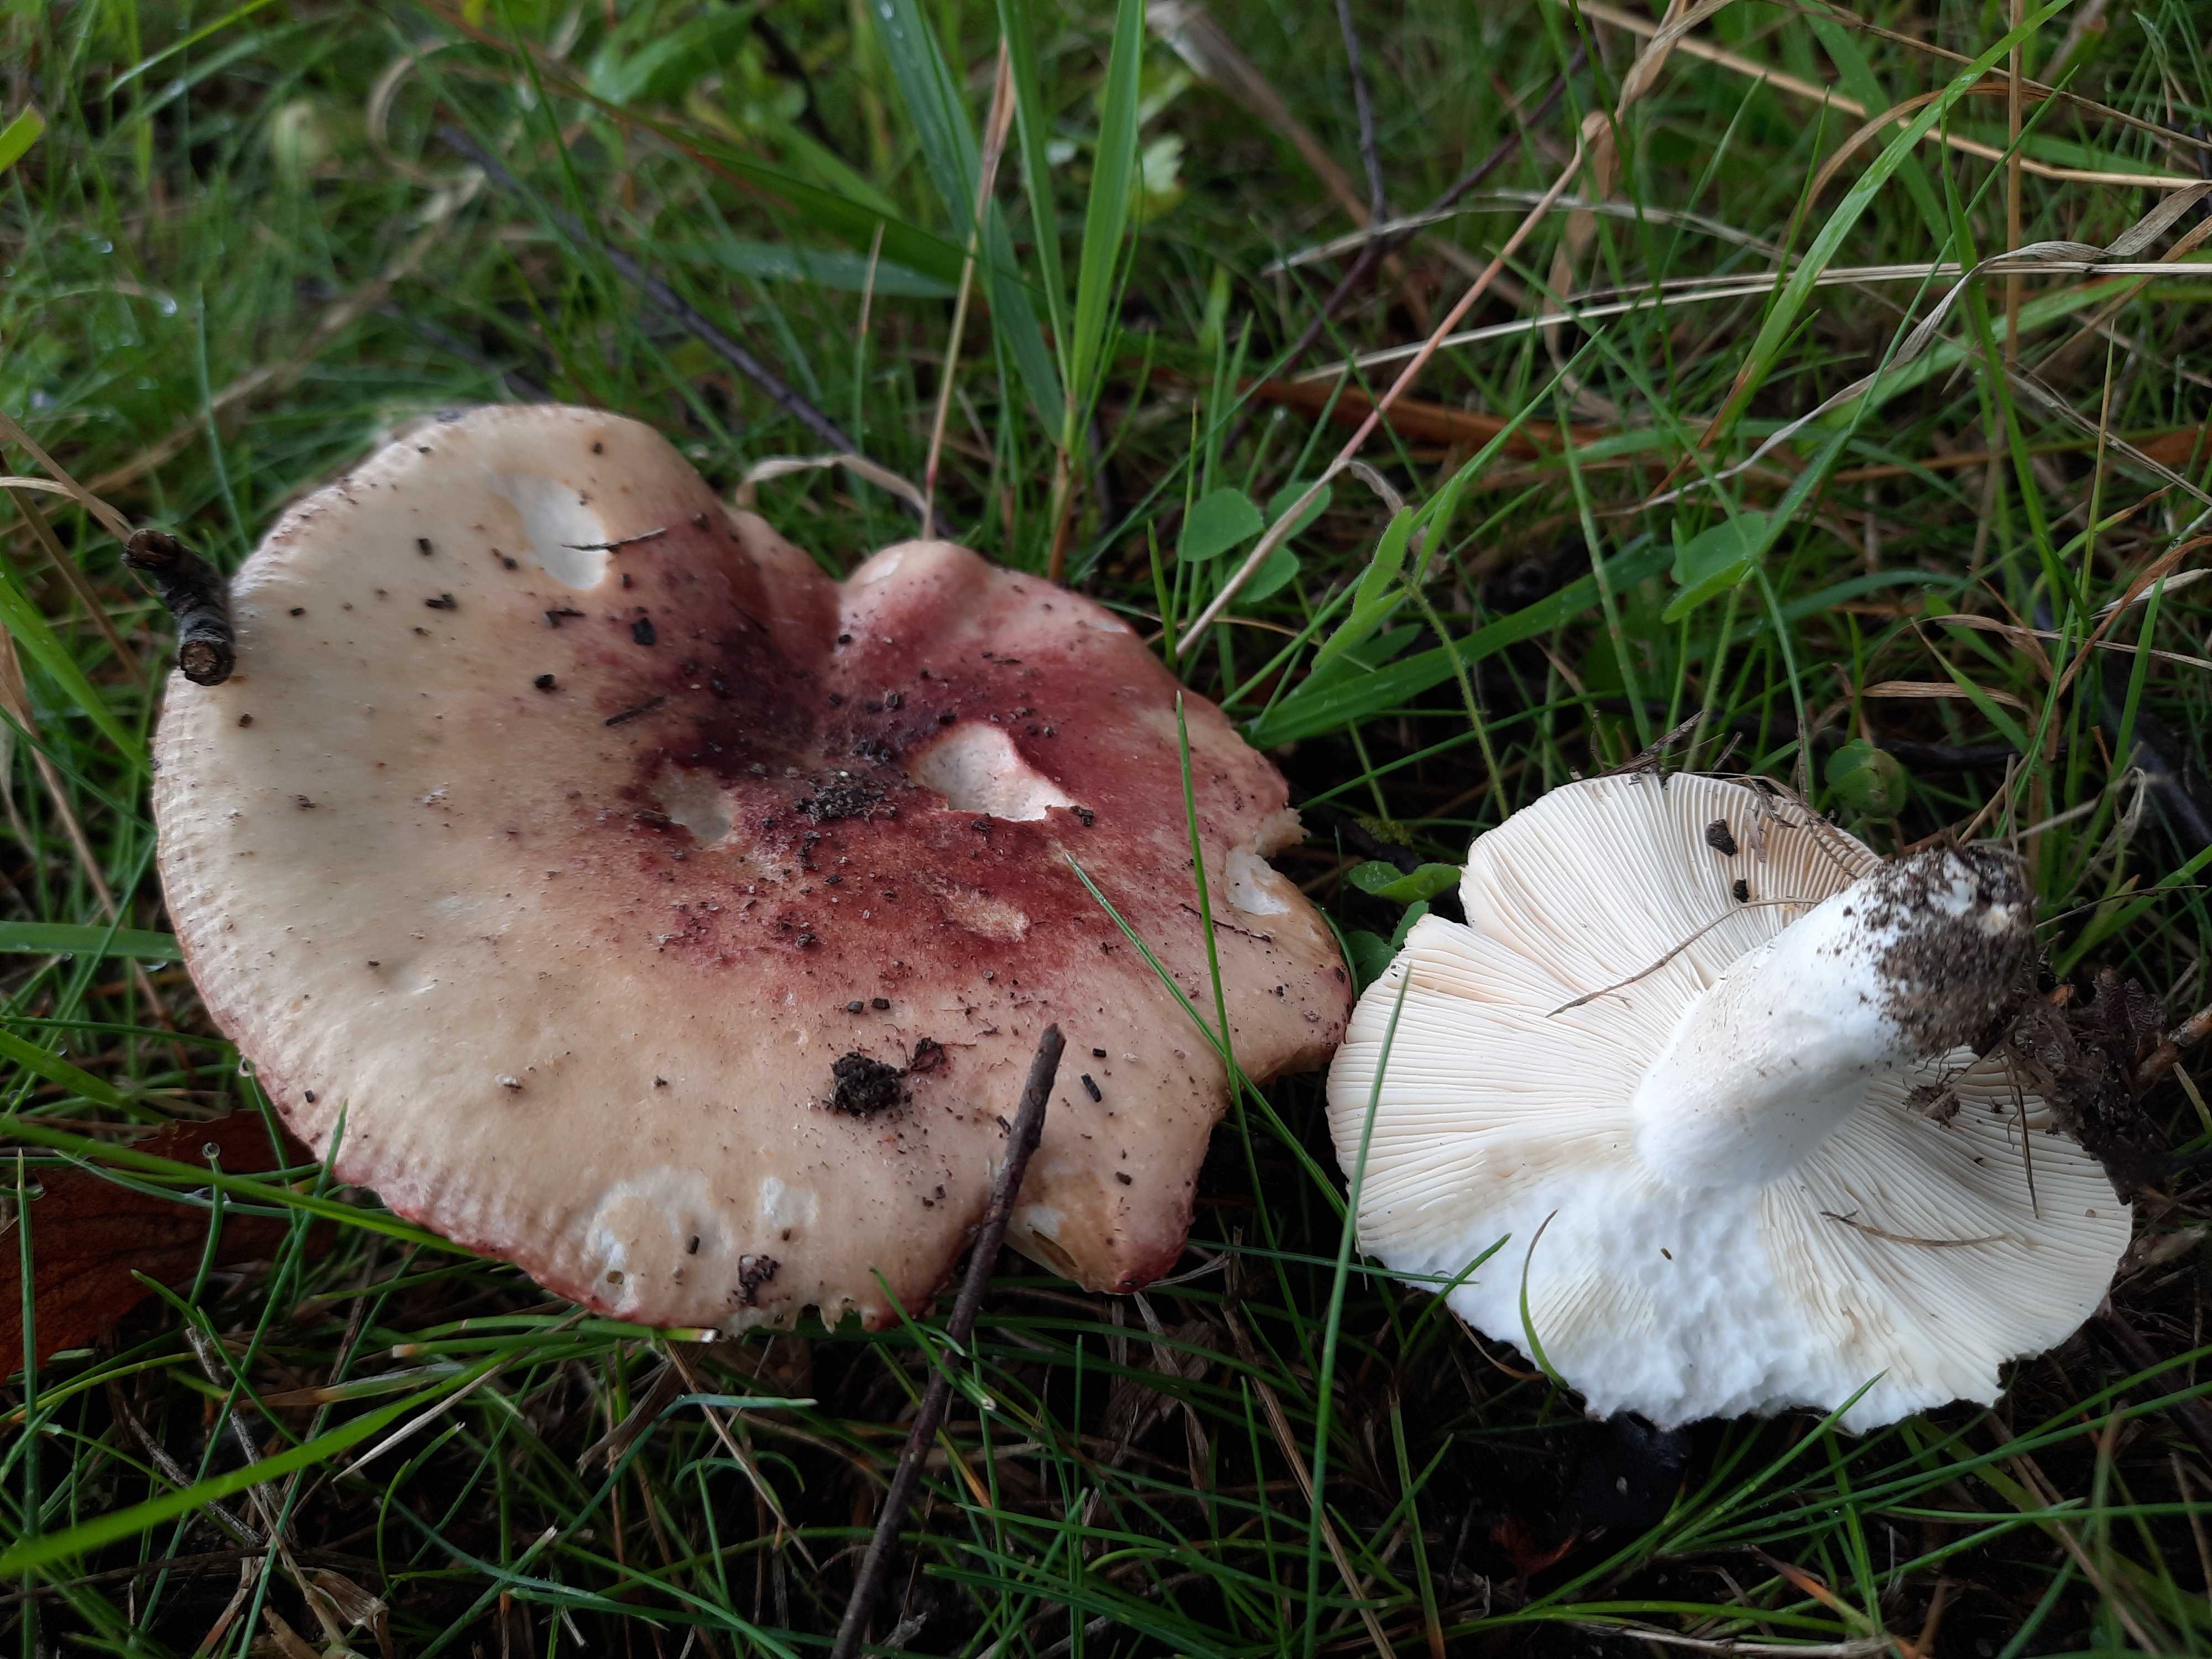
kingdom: Fungi
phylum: Basidiomycota
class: Agaricomycetes
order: Russulales
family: Russulaceae
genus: Russula
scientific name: Russula depallens
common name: falmende skørhat
